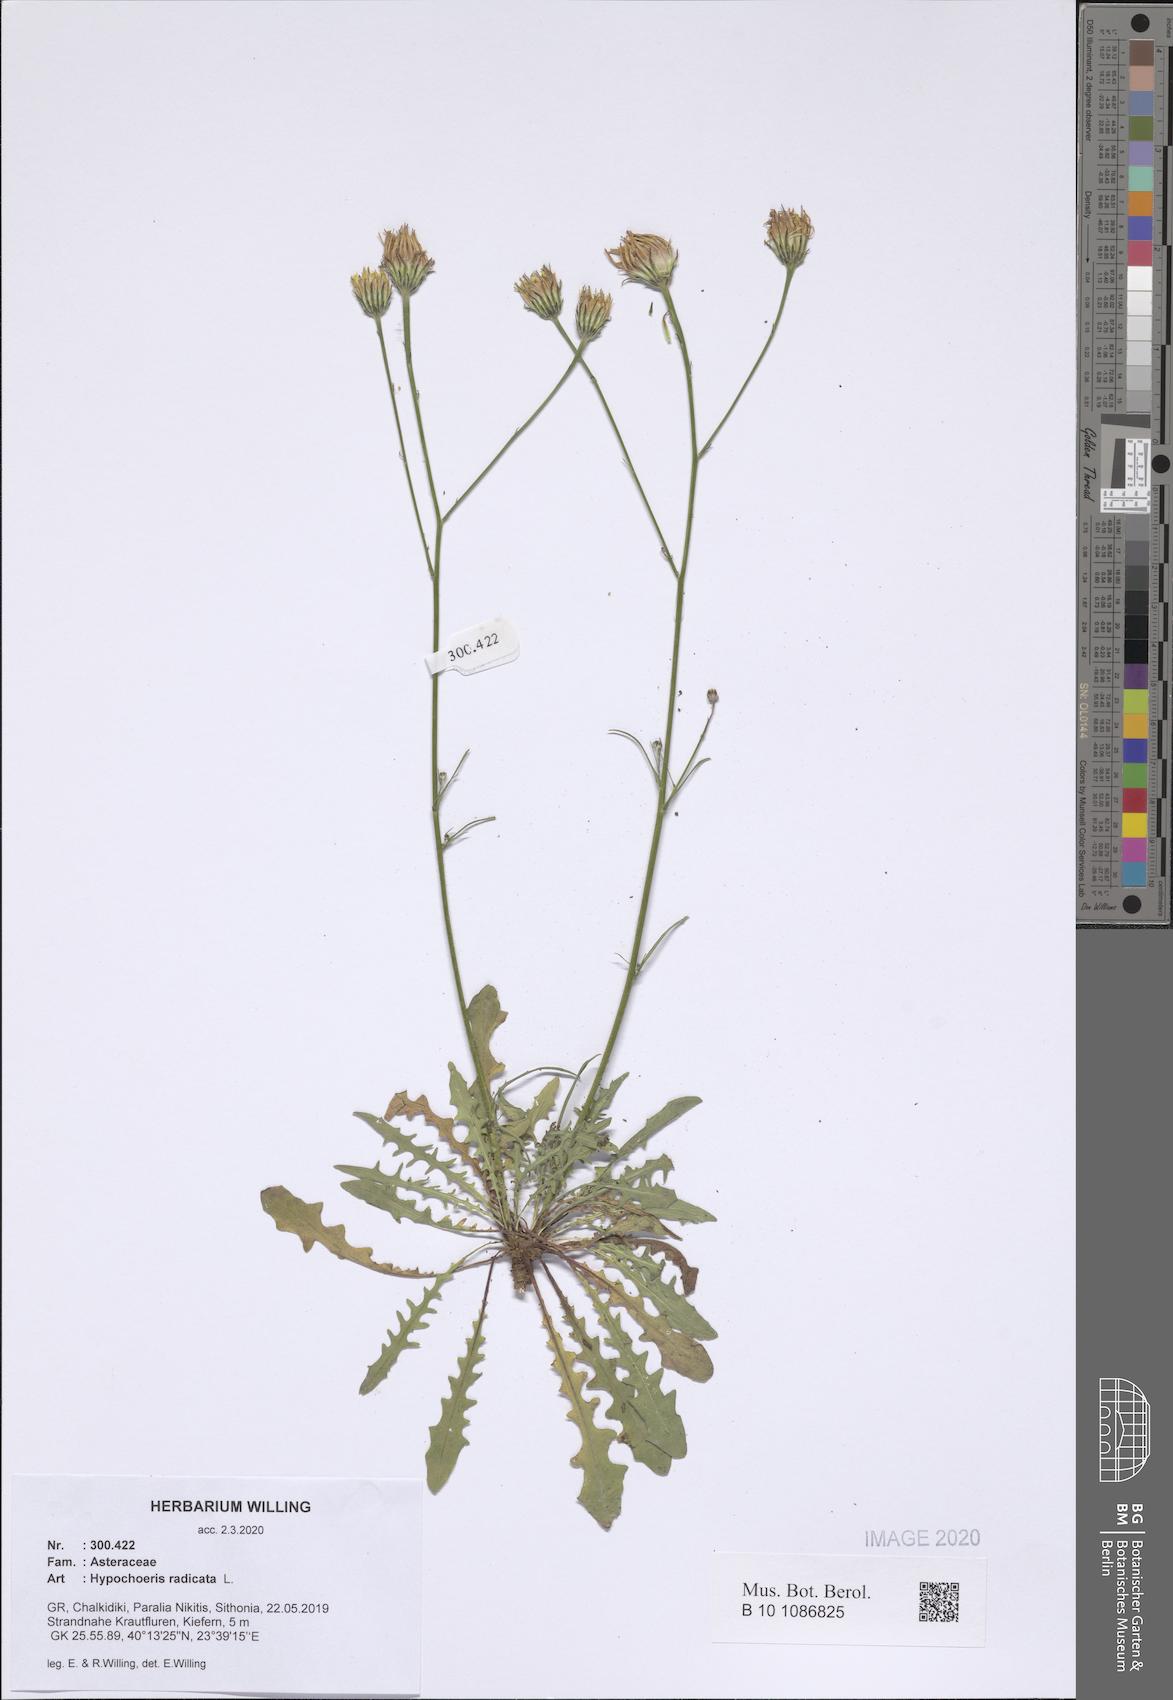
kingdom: Plantae
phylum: Tracheophyta
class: Magnoliopsida
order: Asterales
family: Asteraceae
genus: Hypochaeris
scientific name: Hypochaeris radicata
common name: Flatweed
